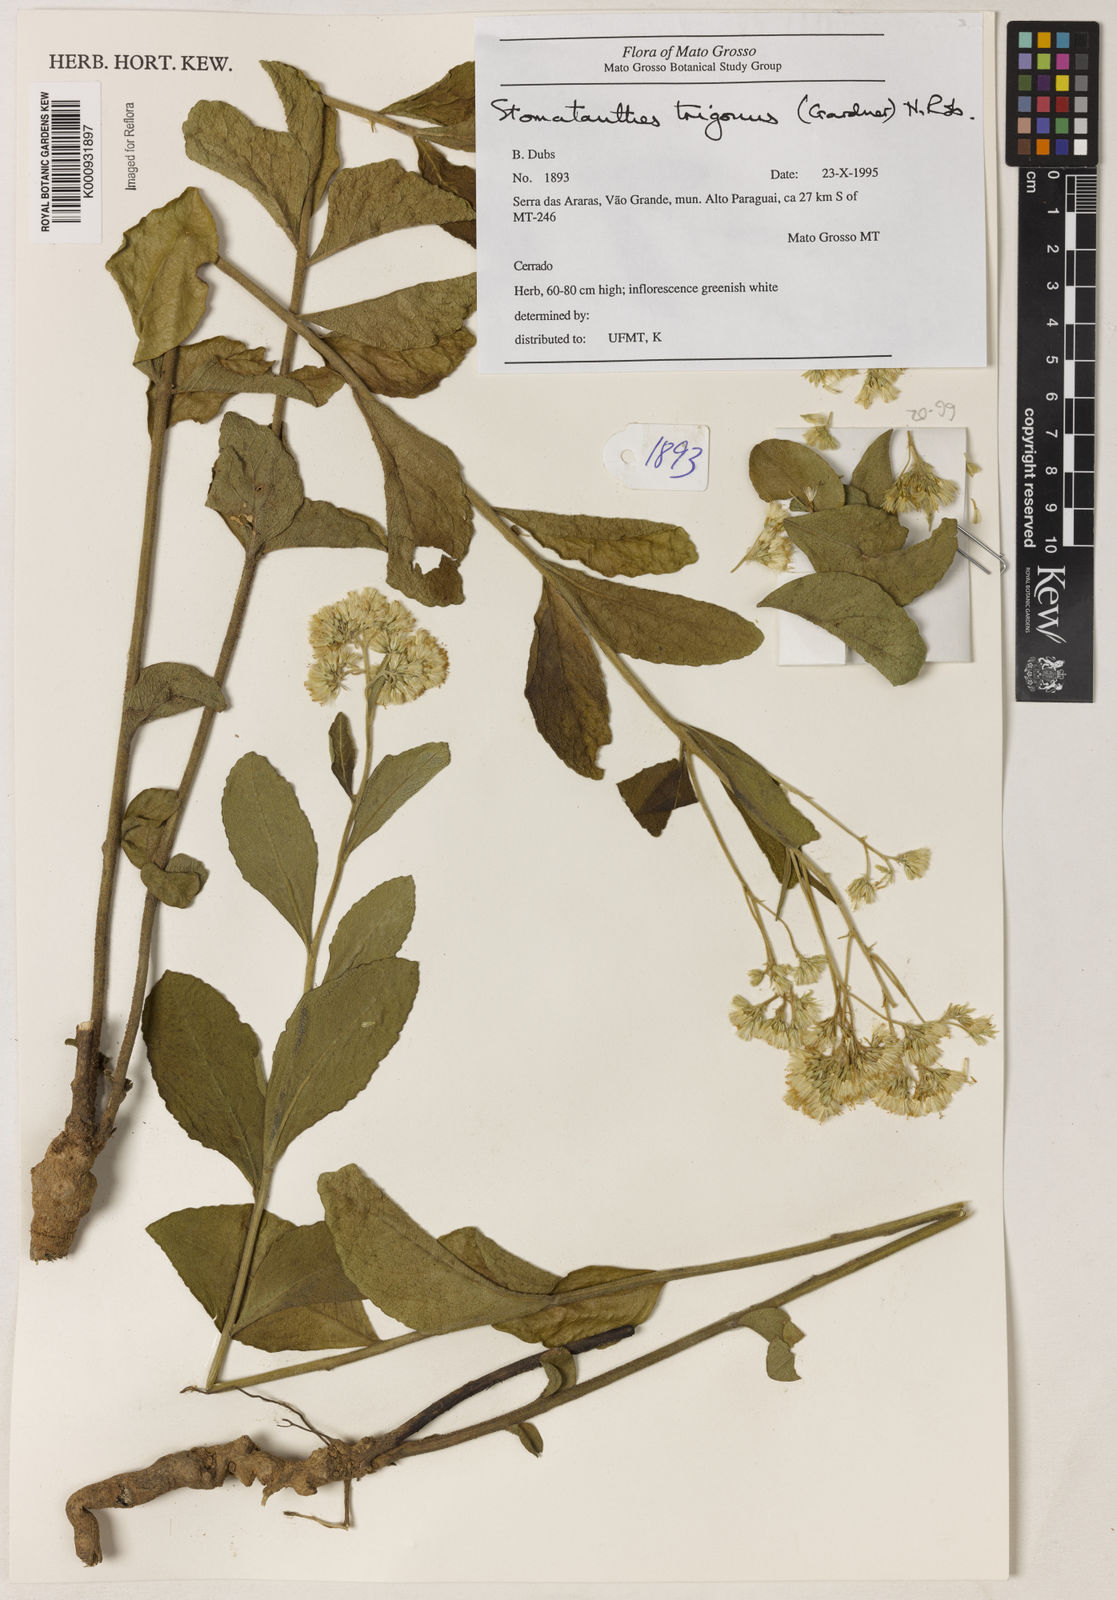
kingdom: Plantae
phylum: Tracheophyta
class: Magnoliopsida
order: Asterales
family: Asteraceae
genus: Stomatanthes
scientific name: Stomatanthes trigonus
